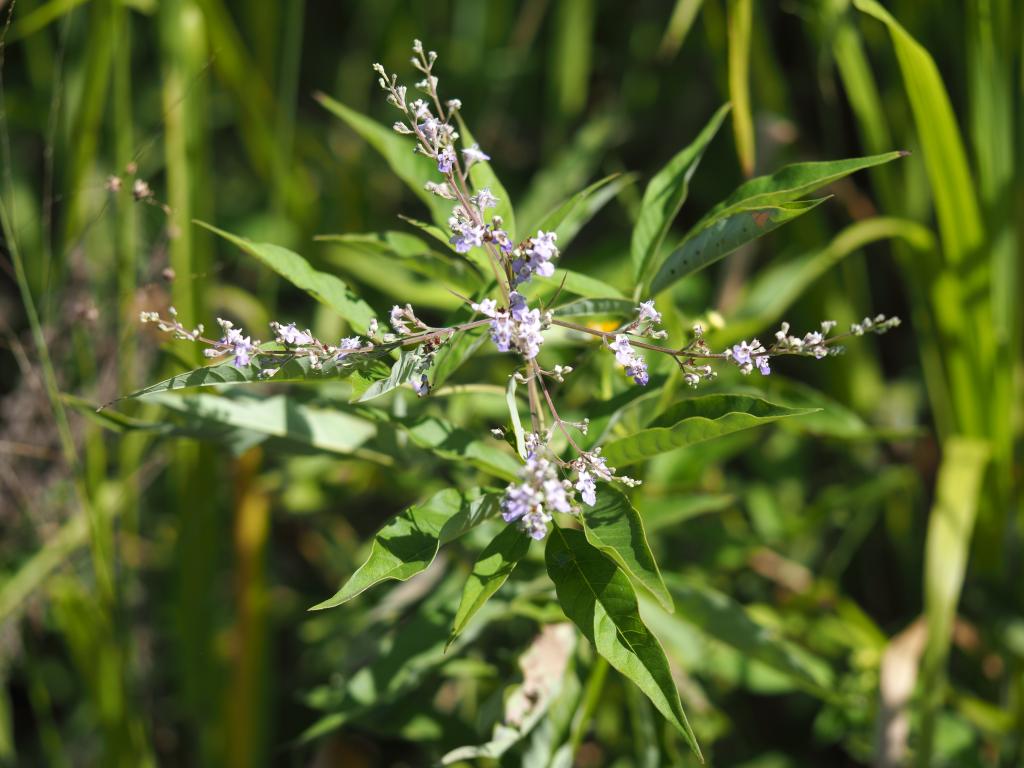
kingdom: Plantae
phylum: Tracheophyta
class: Magnoliopsida
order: Lamiales
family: Lamiaceae
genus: Vitex
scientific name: Vitex negundo
